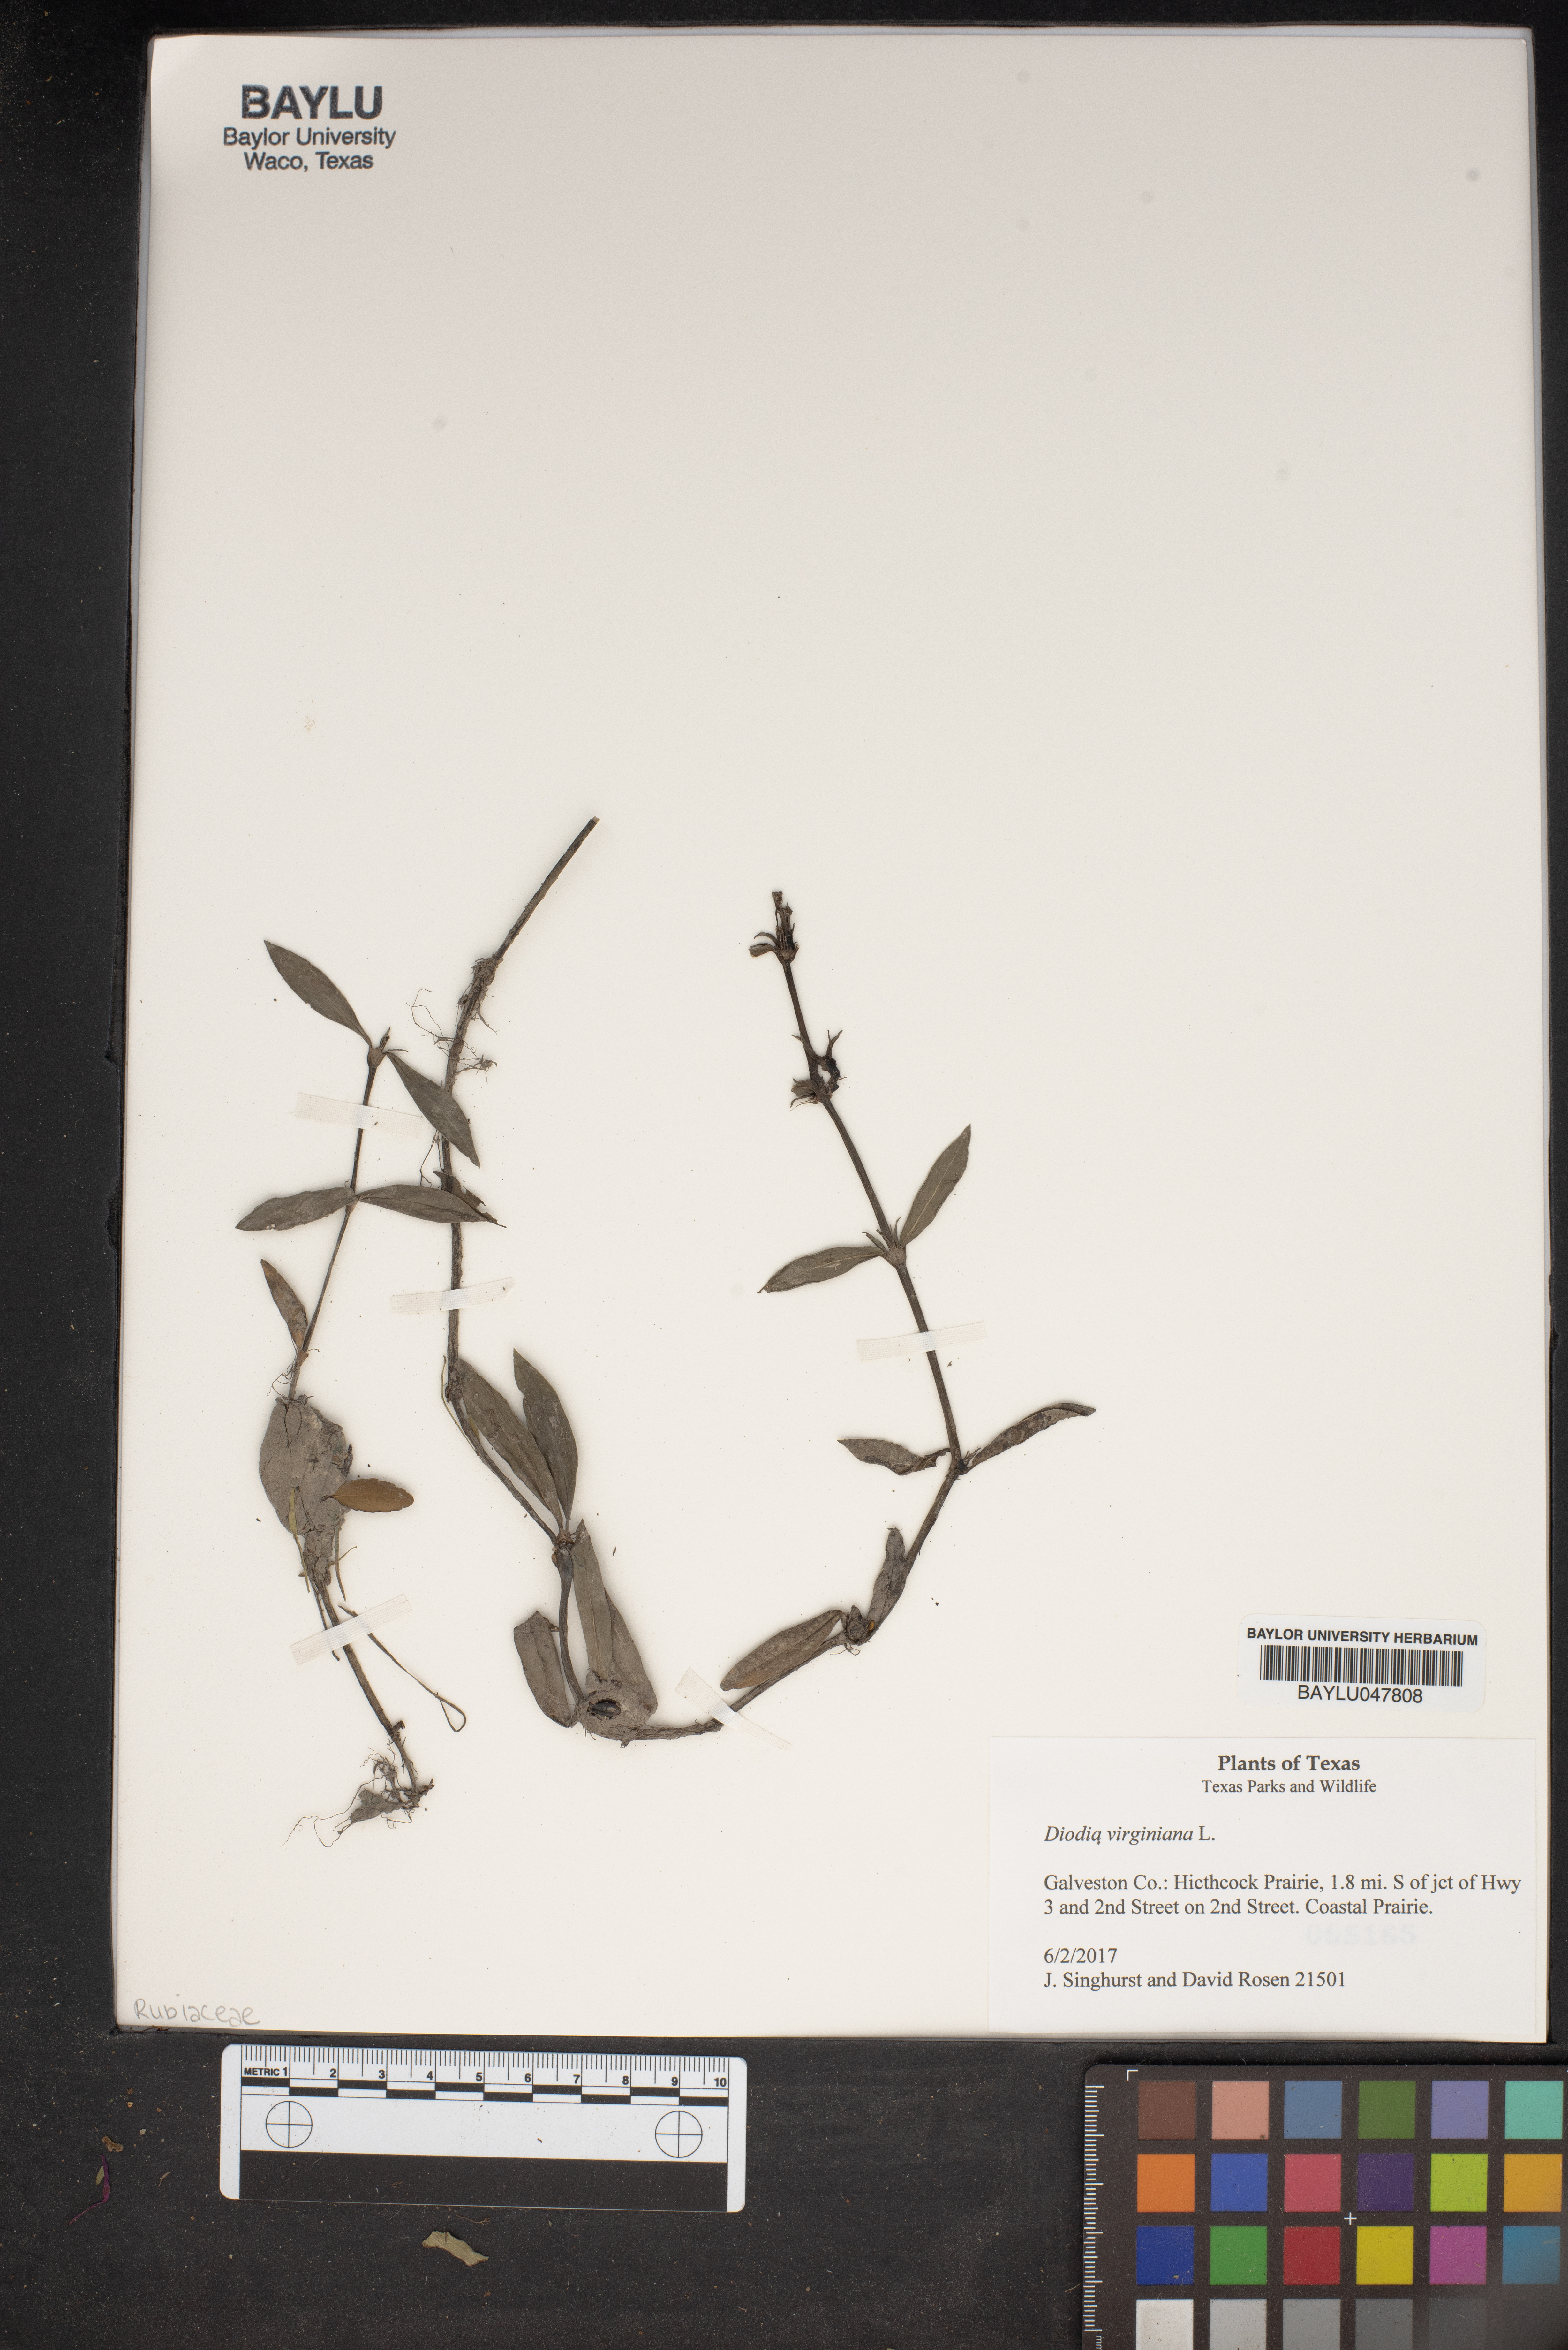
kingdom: Plantae
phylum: Tracheophyta
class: Magnoliopsida
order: Gentianales
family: Rubiaceae
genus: Diodia
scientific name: Diodia virginiana
